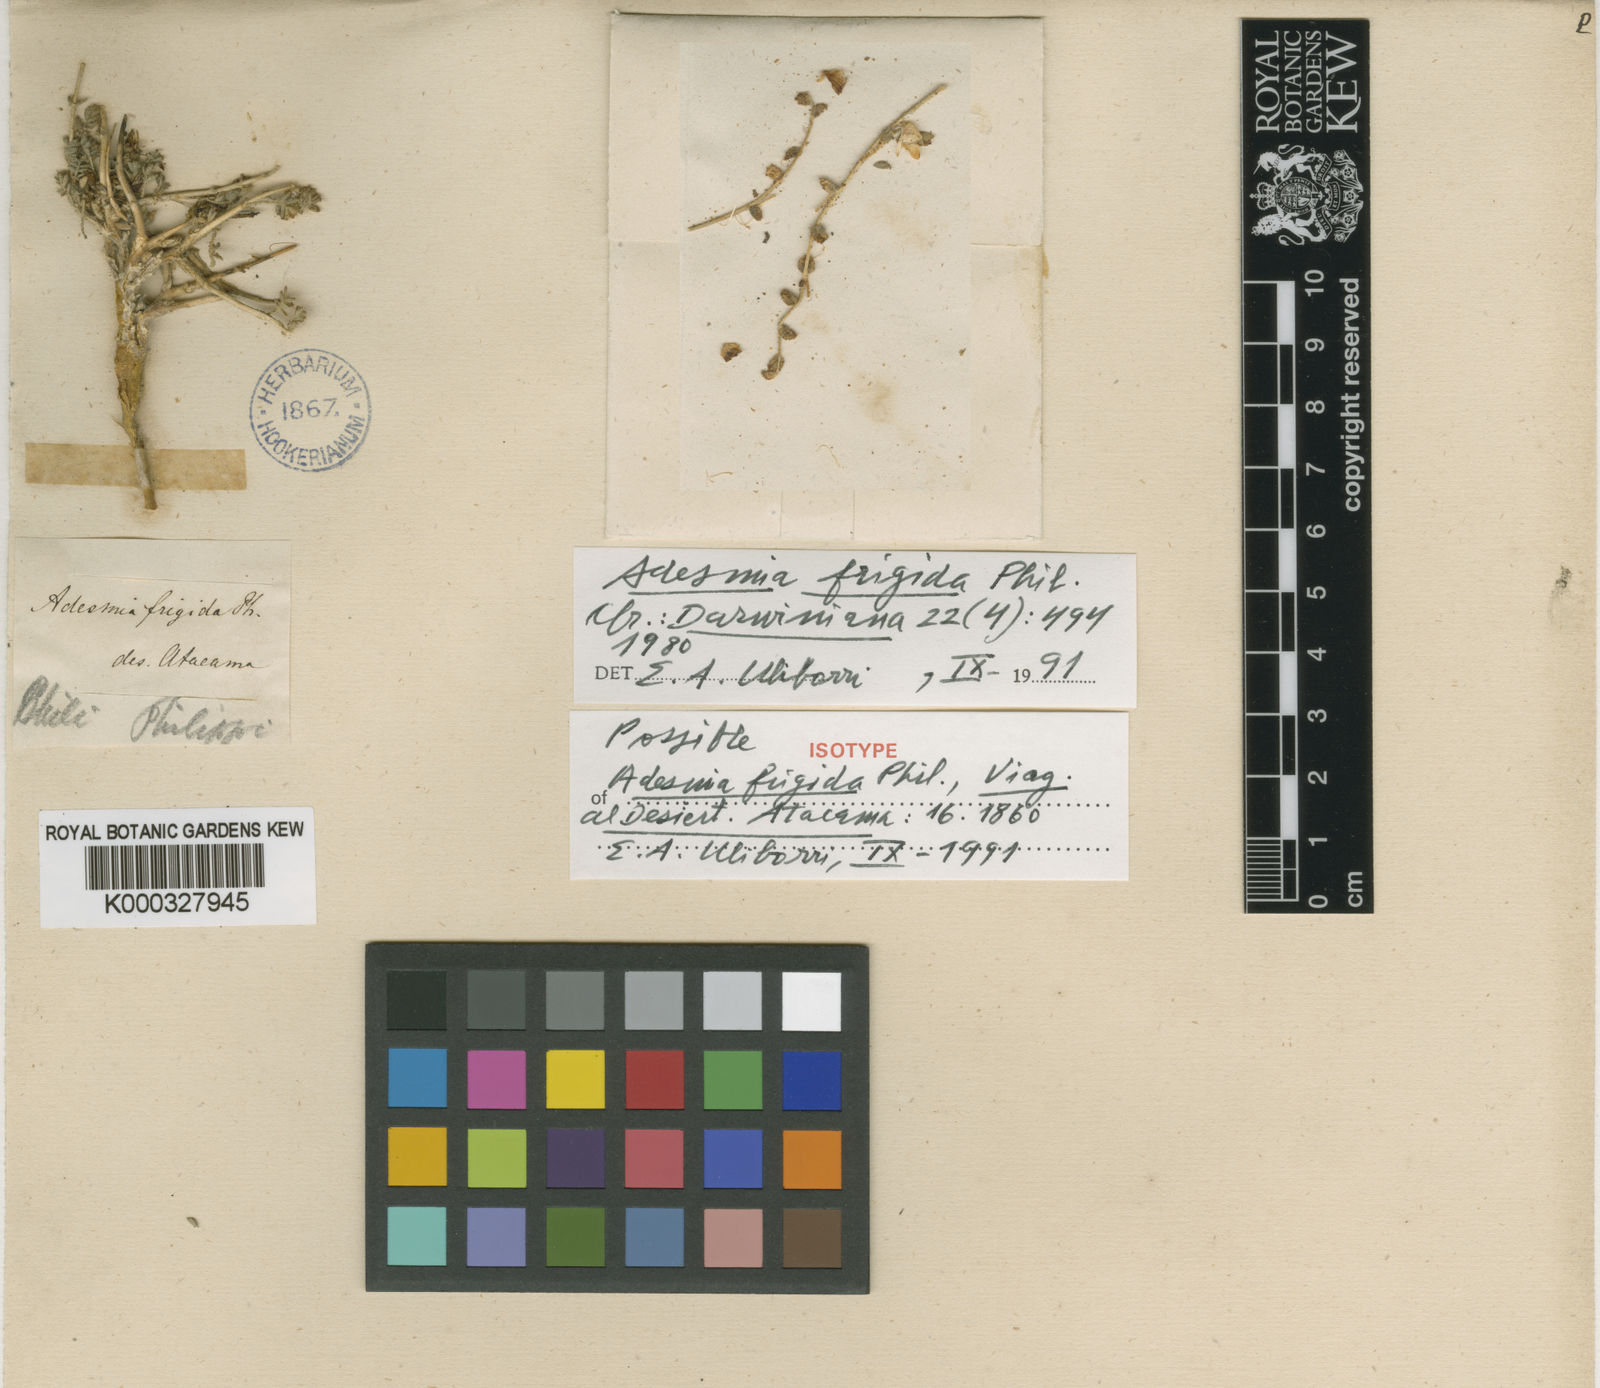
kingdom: Plantae
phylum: Tracheophyta
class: Magnoliopsida
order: Fabales
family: Fabaceae
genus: Adesmia
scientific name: Adesmia frigida
